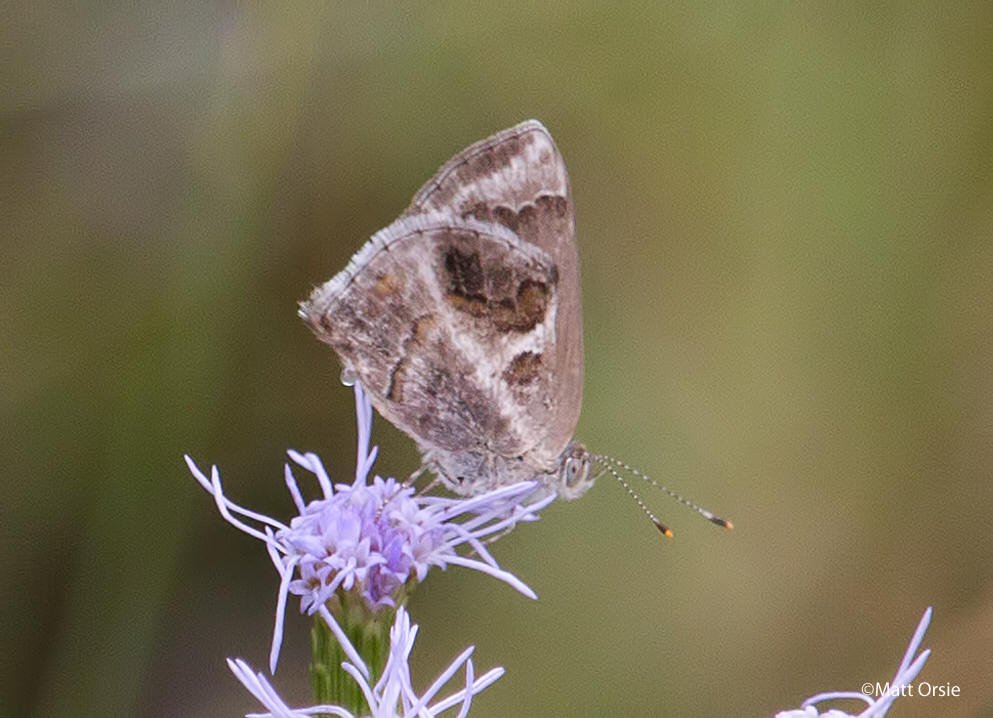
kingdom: Animalia
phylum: Arthropoda
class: Insecta
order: Lepidoptera
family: Lycaenidae
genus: Strymon
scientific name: Strymon bazochii
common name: Lantana Scrub-Hairstreak
